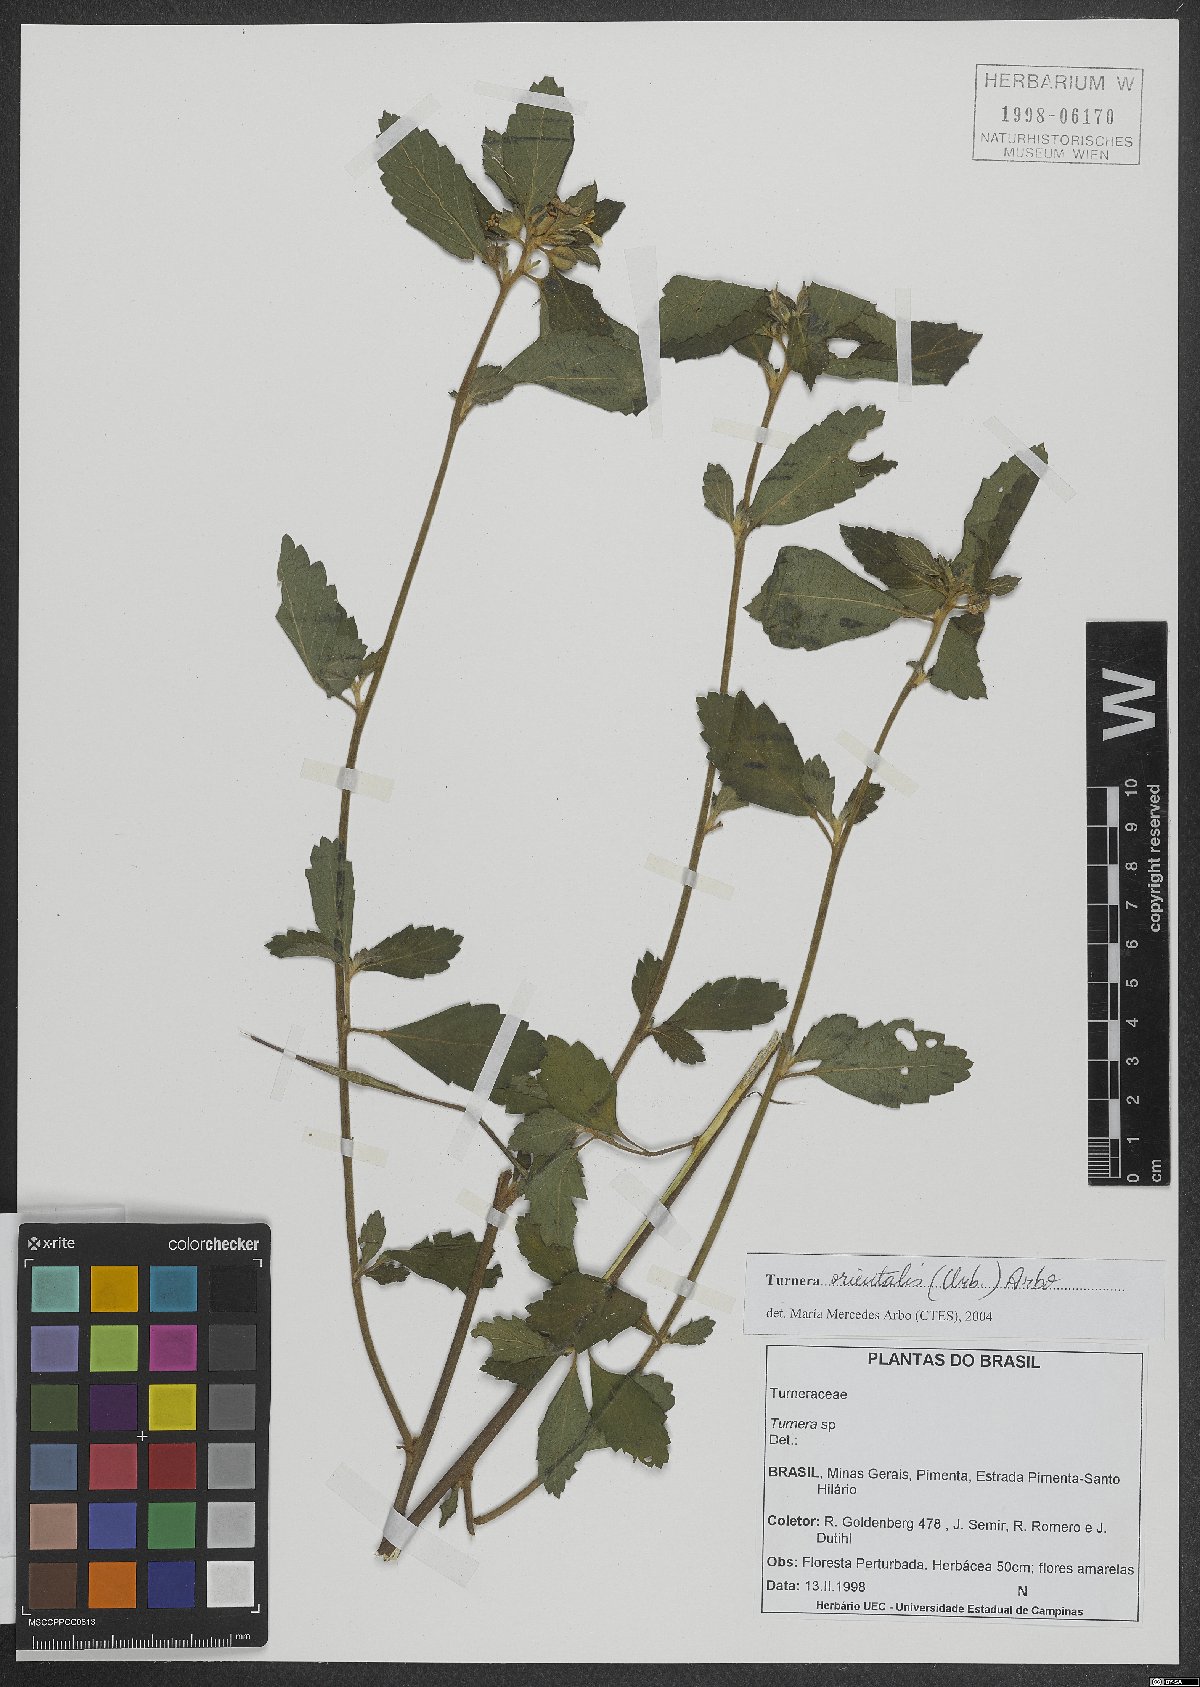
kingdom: Plantae
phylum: Tracheophyta
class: Magnoliopsida
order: Malpighiales
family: Turneraceae
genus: Turnera
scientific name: Turnera orientalis
